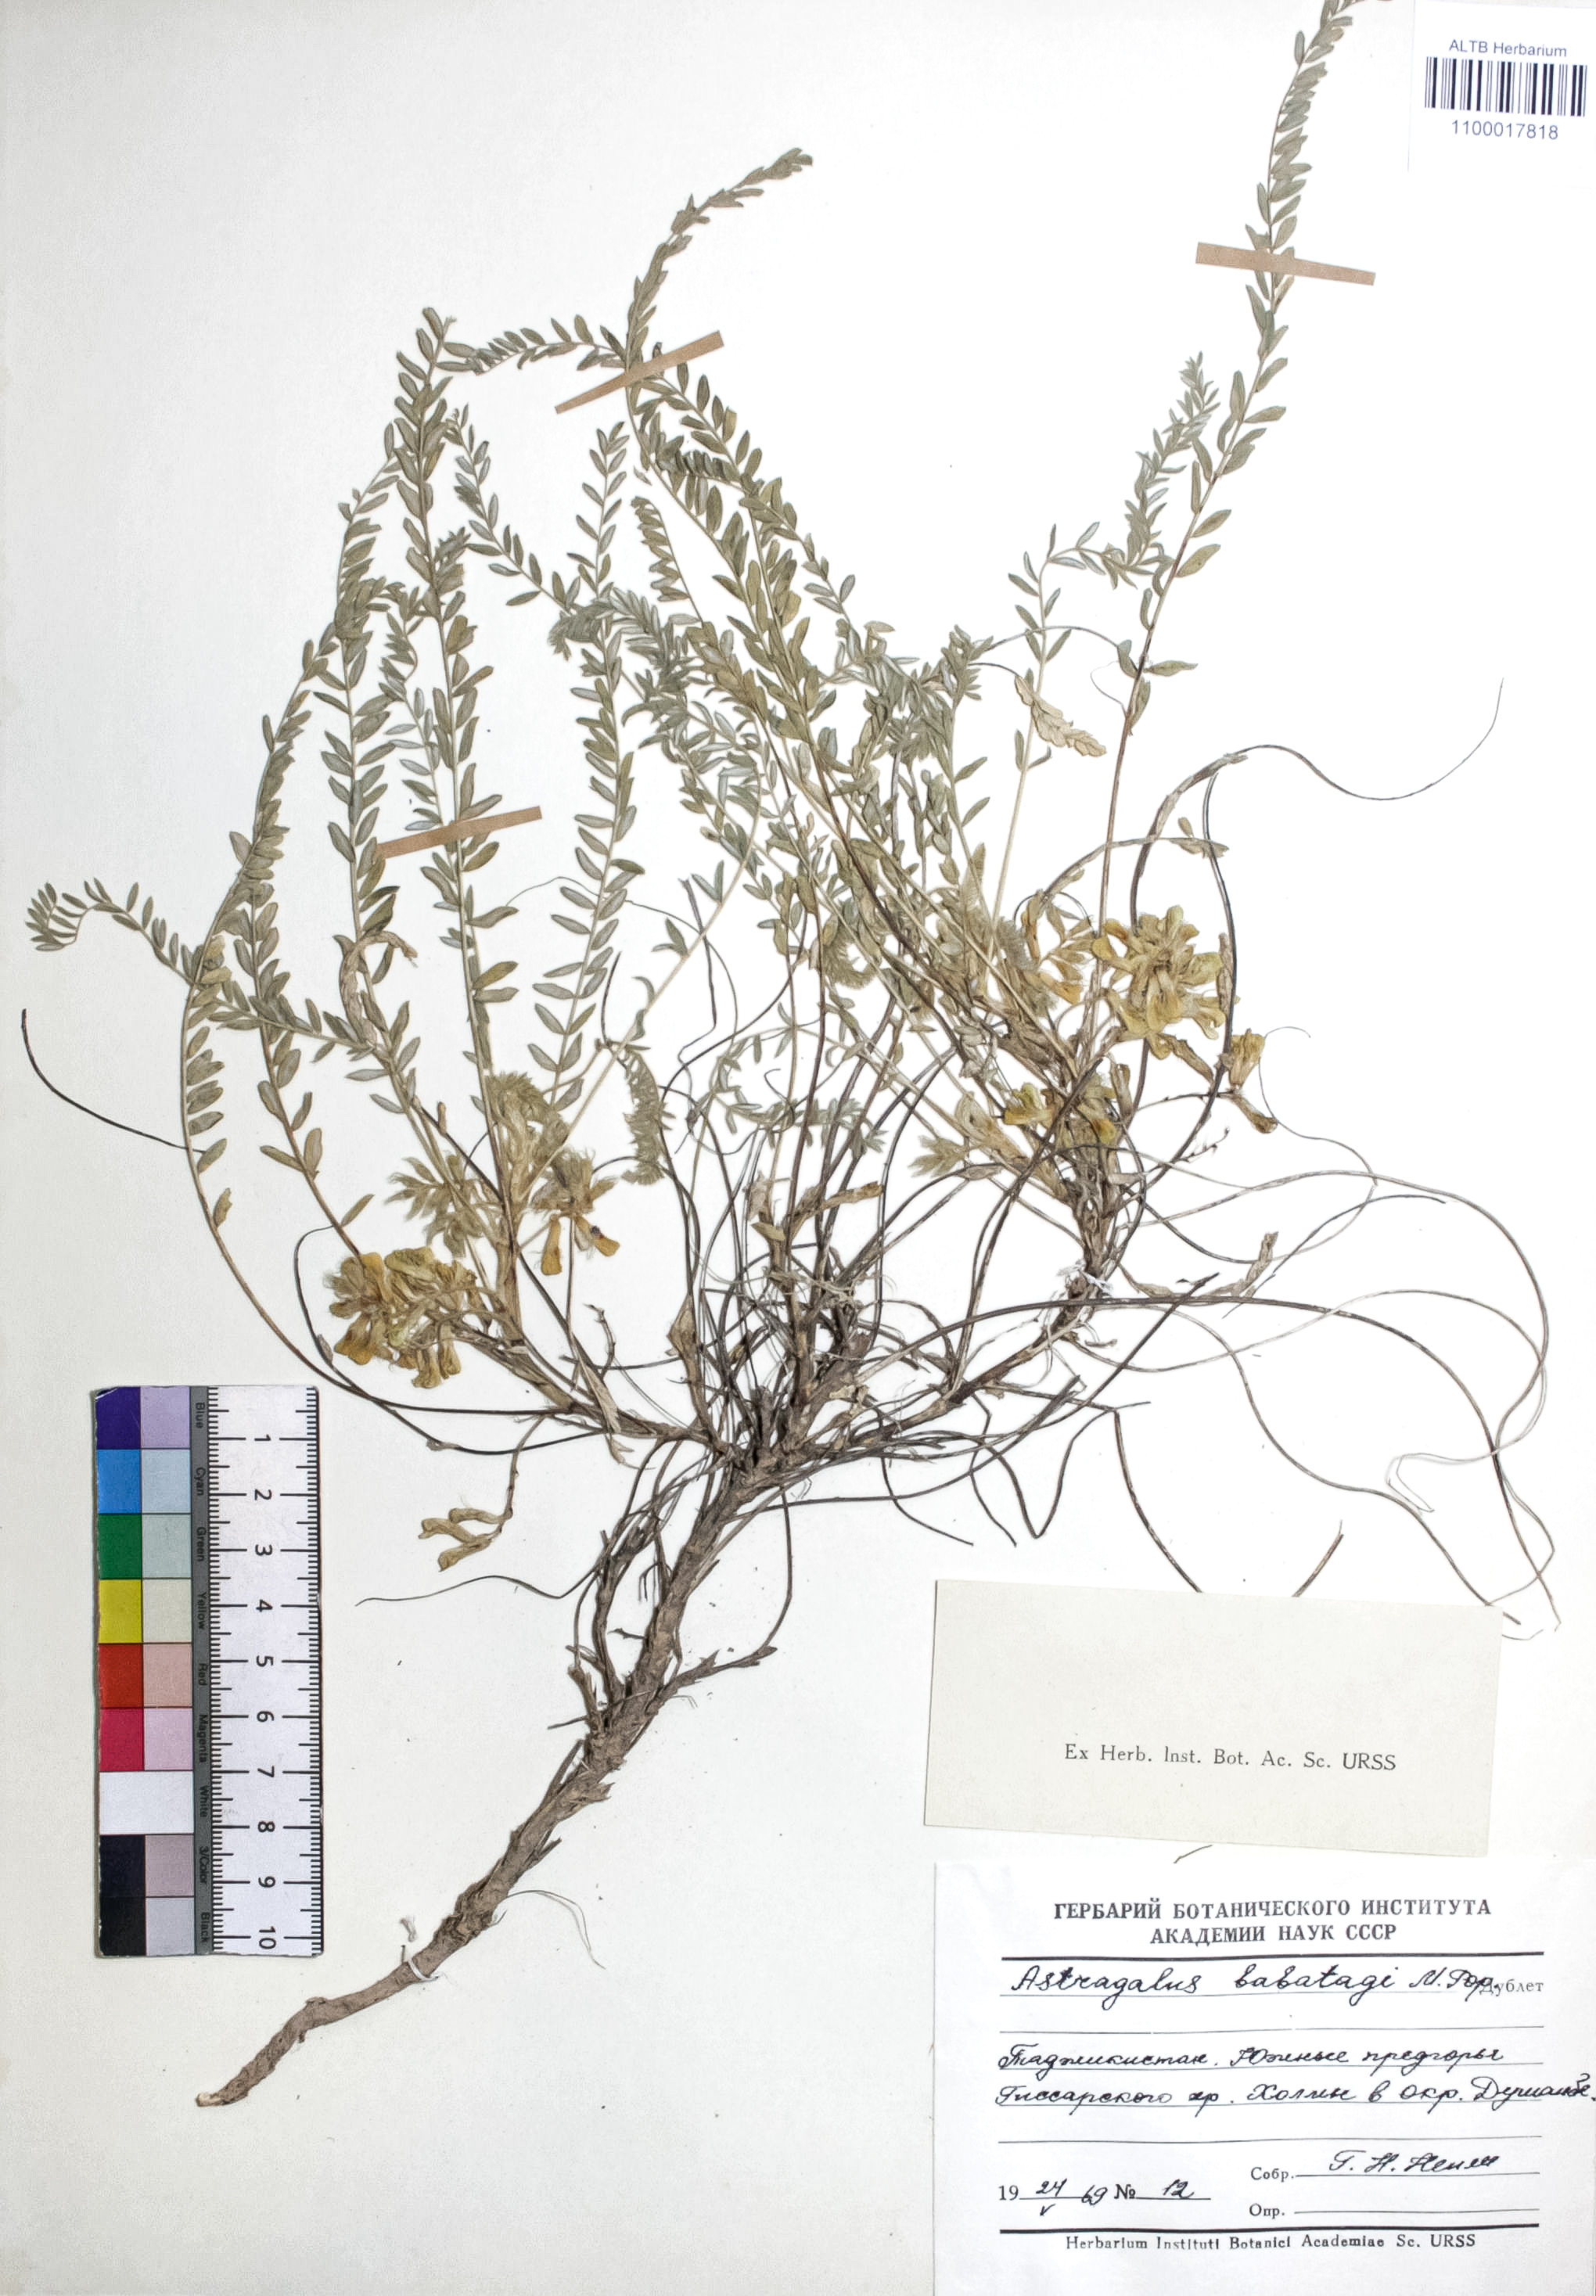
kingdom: Plantae
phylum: Tracheophyta
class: Magnoliopsida
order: Fabales
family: Fabaceae
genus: Astragalus
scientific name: Astragalus babatagi
